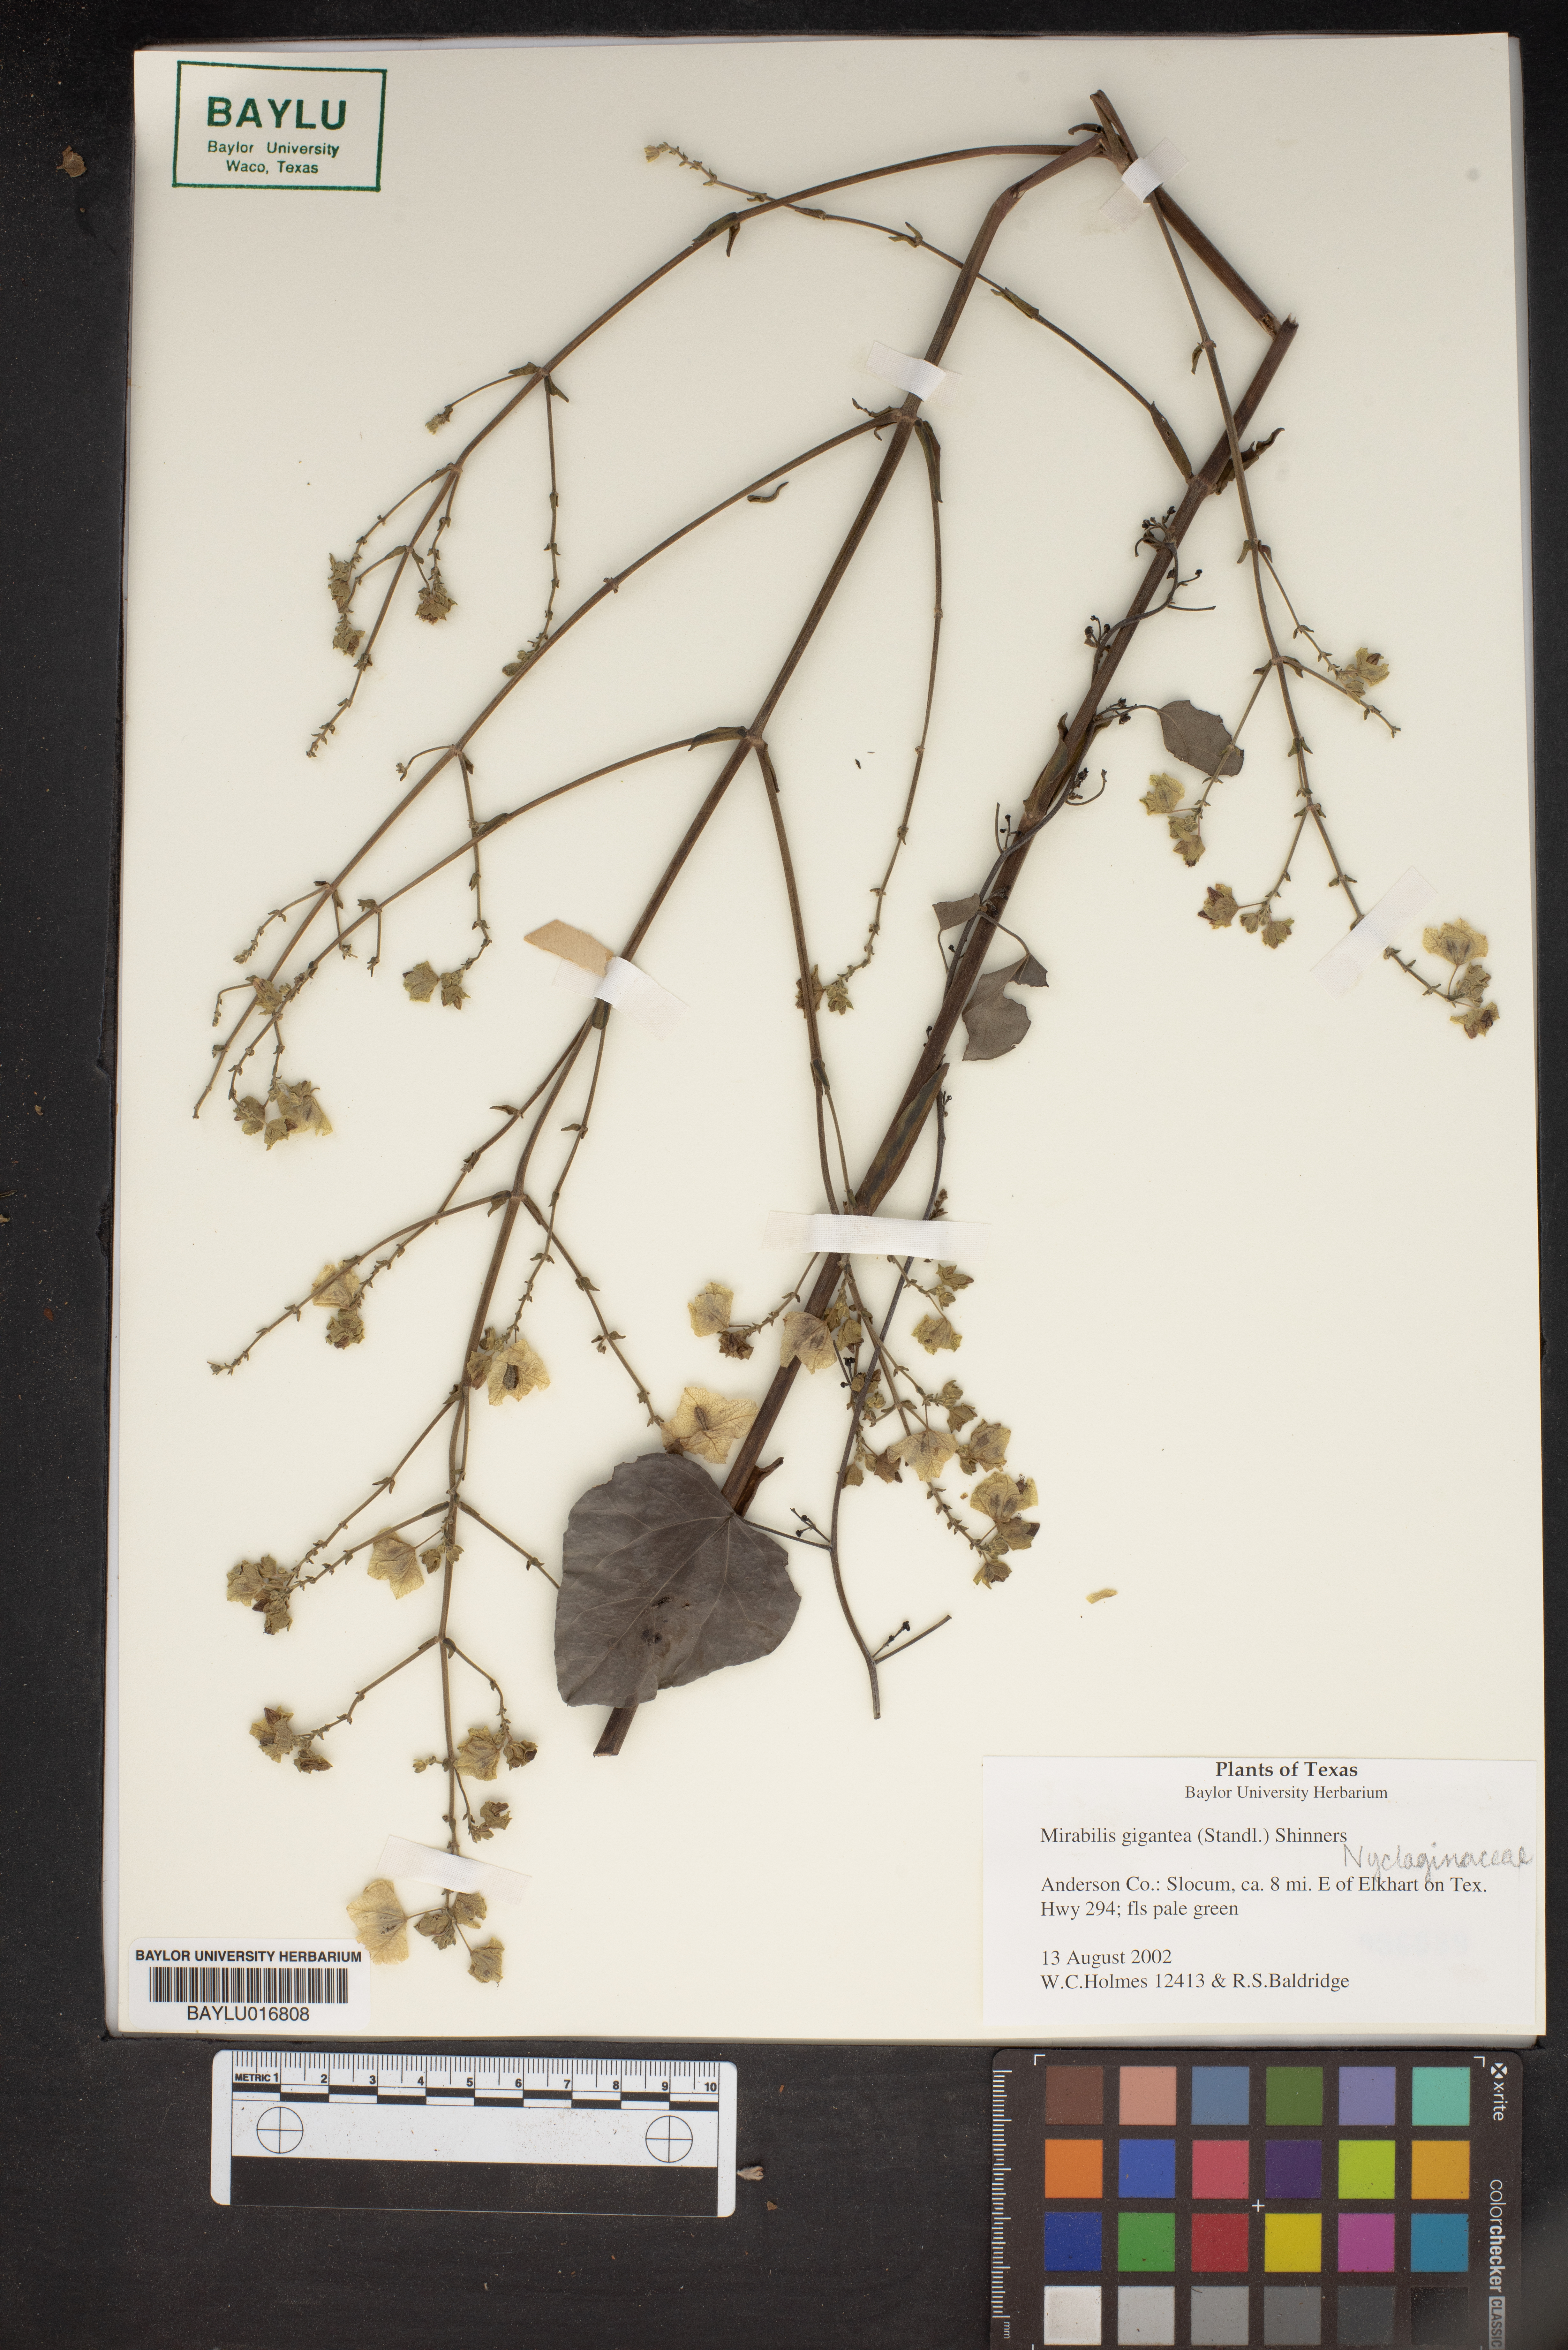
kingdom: Plantae
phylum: Tracheophyta
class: Magnoliopsida
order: Caryophyllales
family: Nyctaginaceae
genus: Mirabilis
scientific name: Mirabilis gigantea
